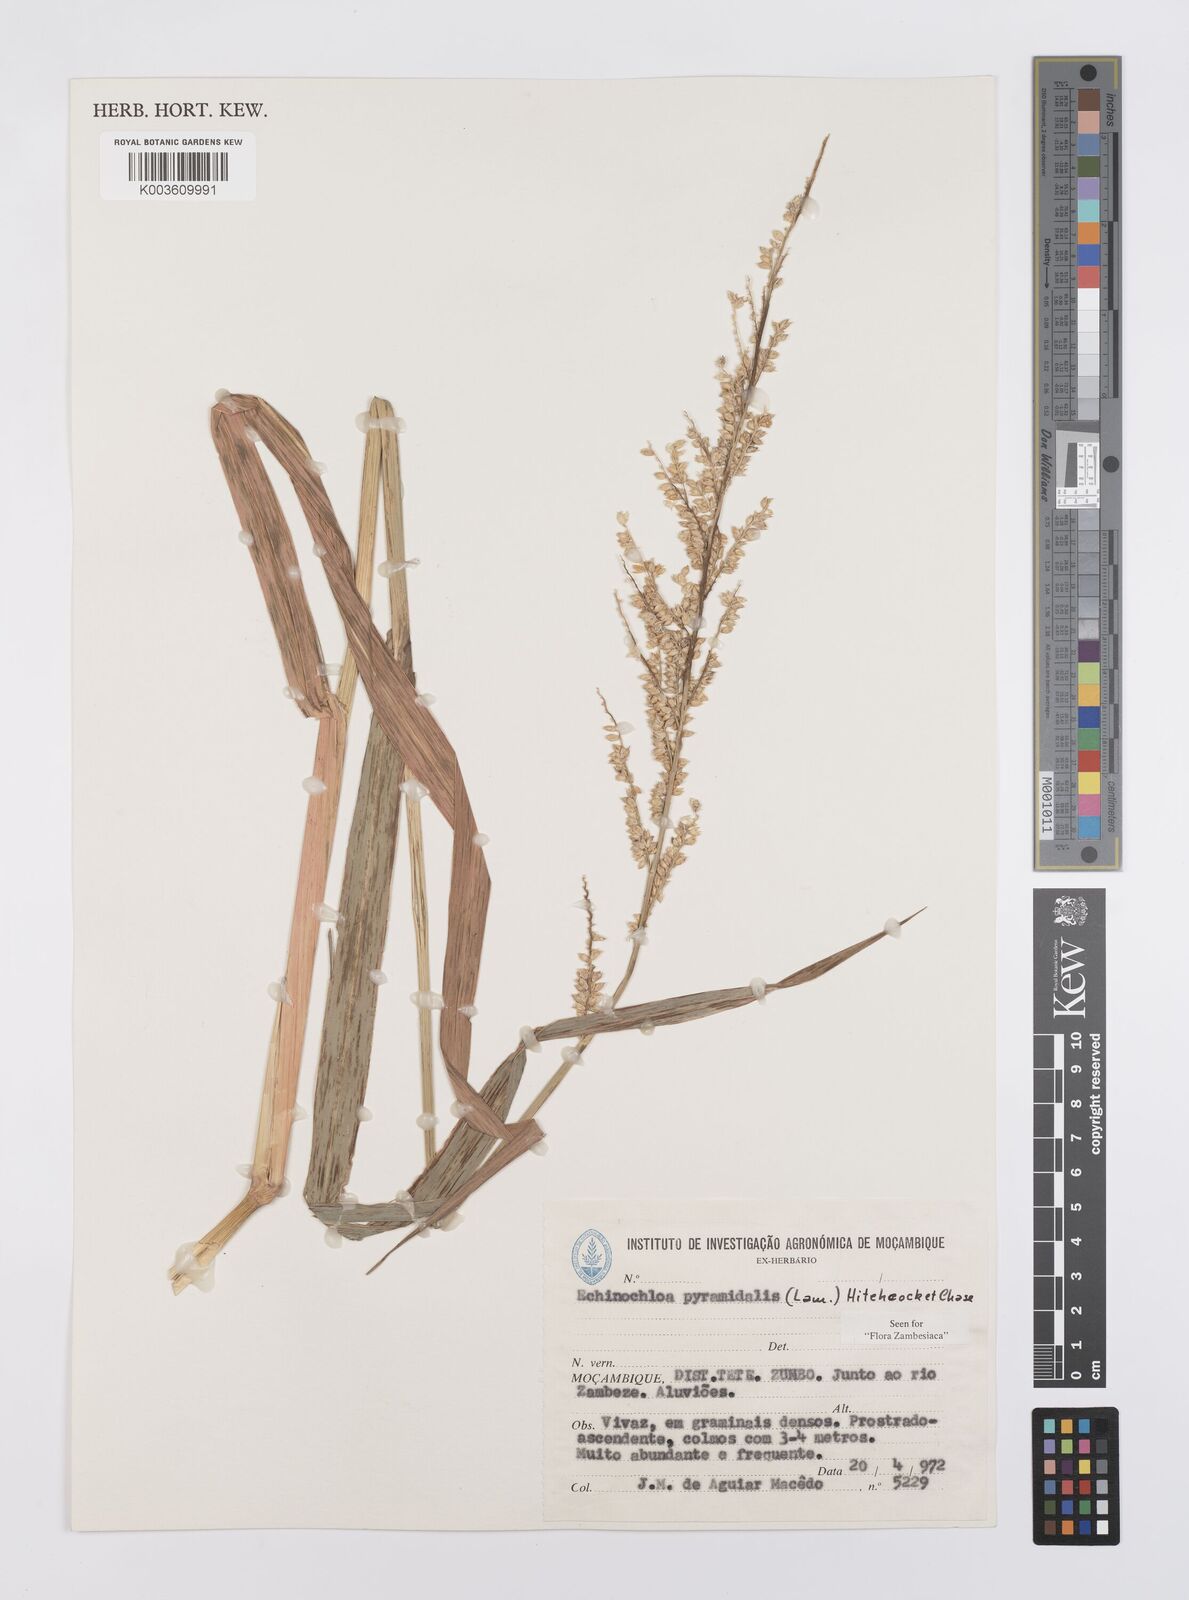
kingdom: Plantae
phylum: Tracheophyta
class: Liliopsida
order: Poales
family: Poaceae
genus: Echinochloa
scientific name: Echinochloa pyramidalis
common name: Antelope grass
